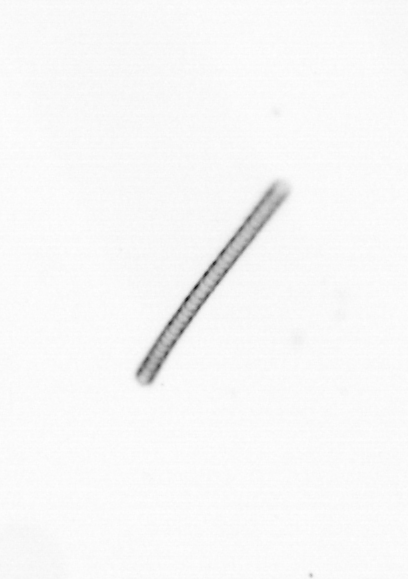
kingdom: Chromista
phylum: Ochrophyta
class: Bacillariophyceae
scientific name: Bacillariophyceae
